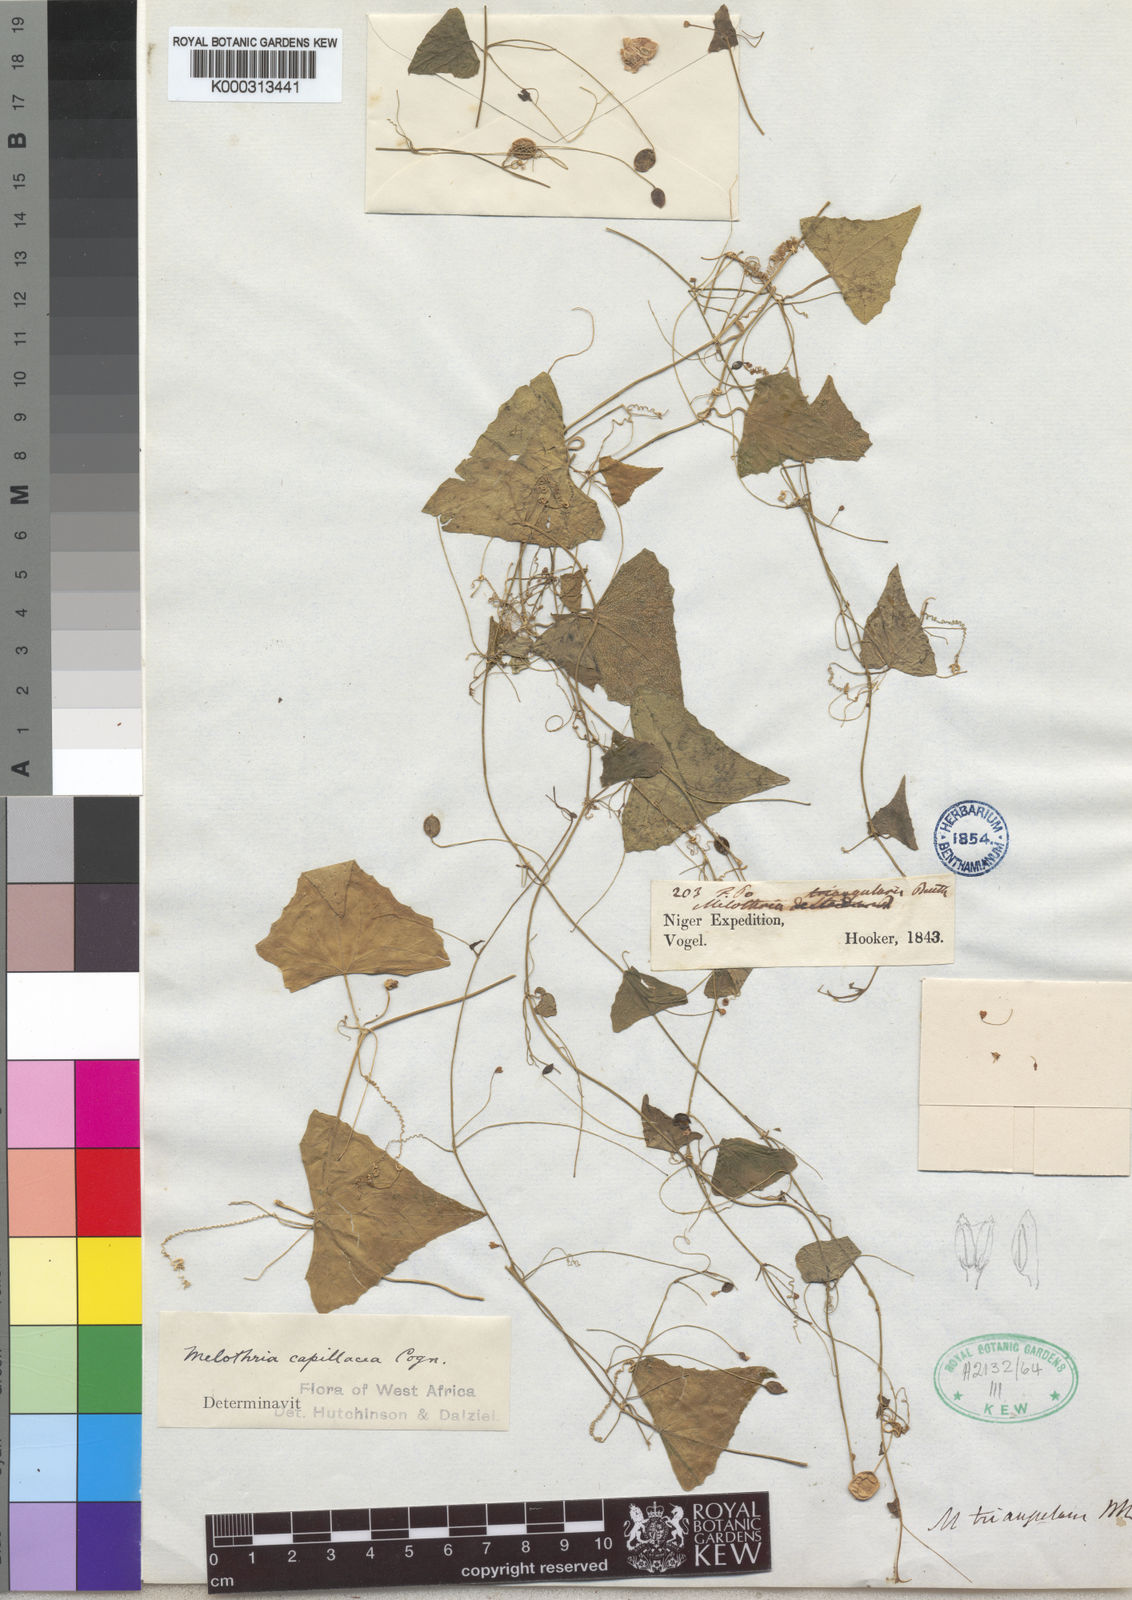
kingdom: Plantae
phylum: Tracheophyta
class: Magnoliopsida
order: Cucurbitales
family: Cucurbitaceae
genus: Zehneria
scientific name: Zehneria capillacea
